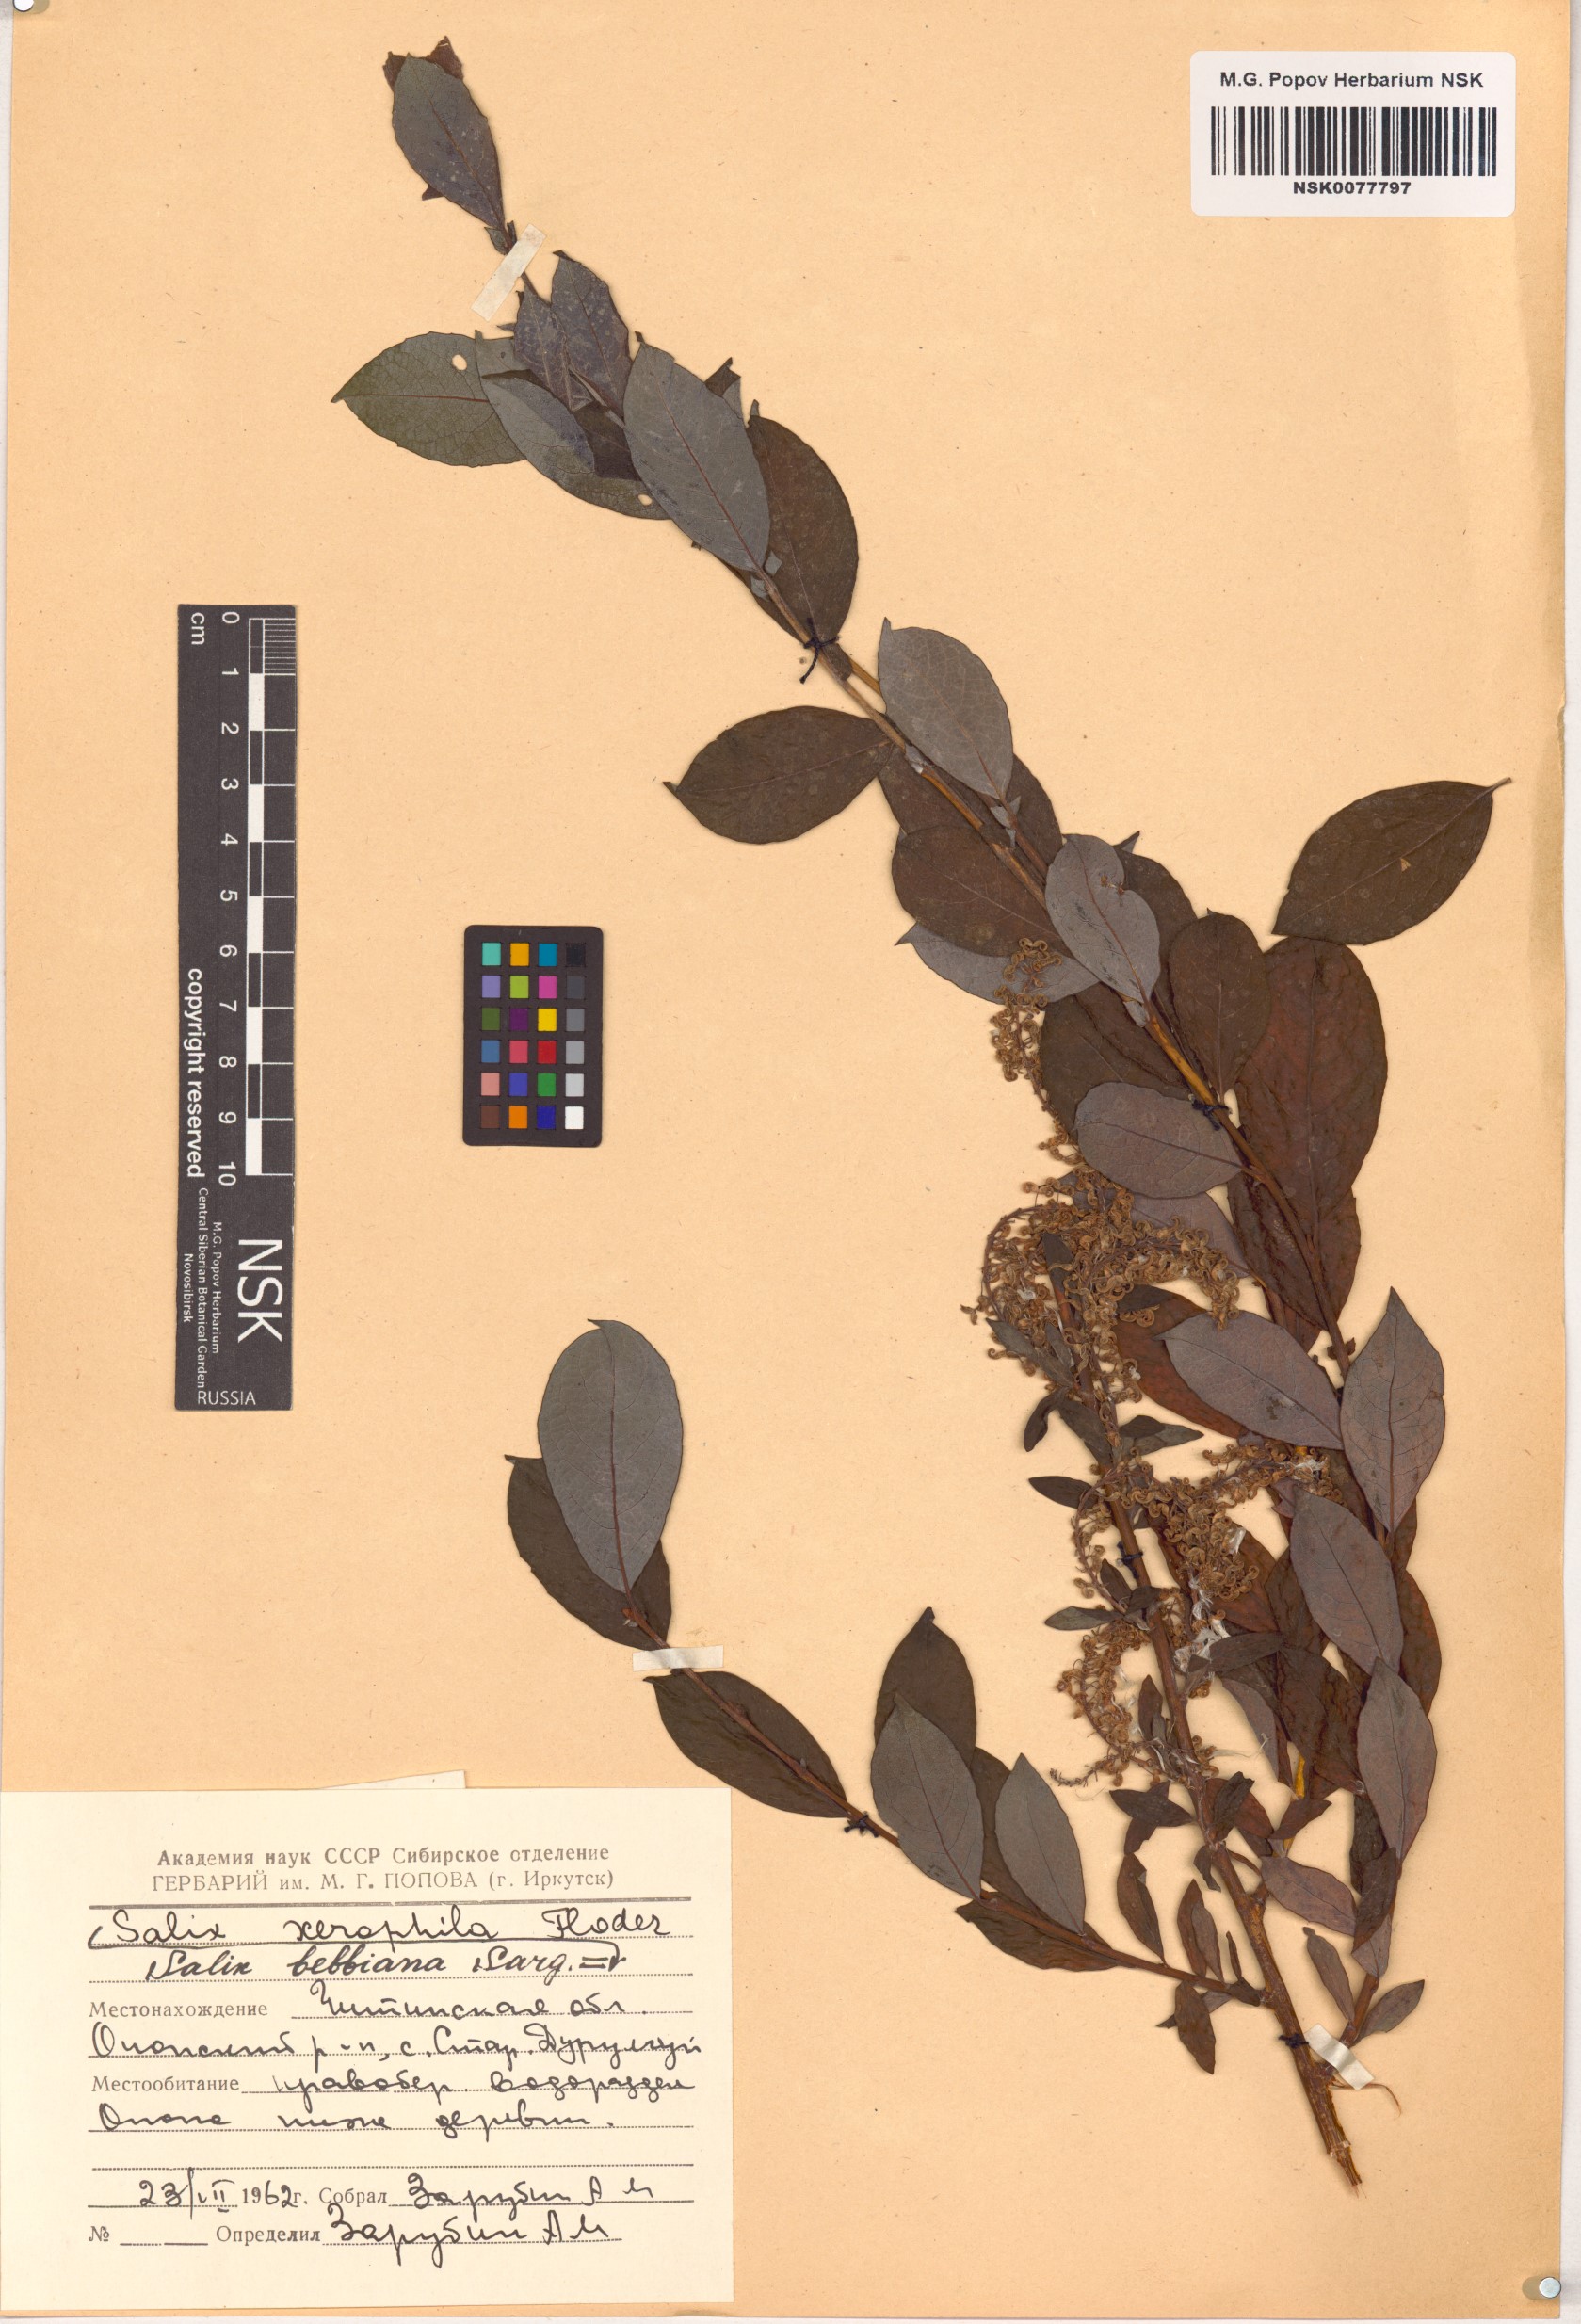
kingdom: Plantae
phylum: Tracheophyta
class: Magnoliopsida
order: Malpighiales
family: Salicaceae
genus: Salix
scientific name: Salix bebbiana
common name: Bebb's willow
